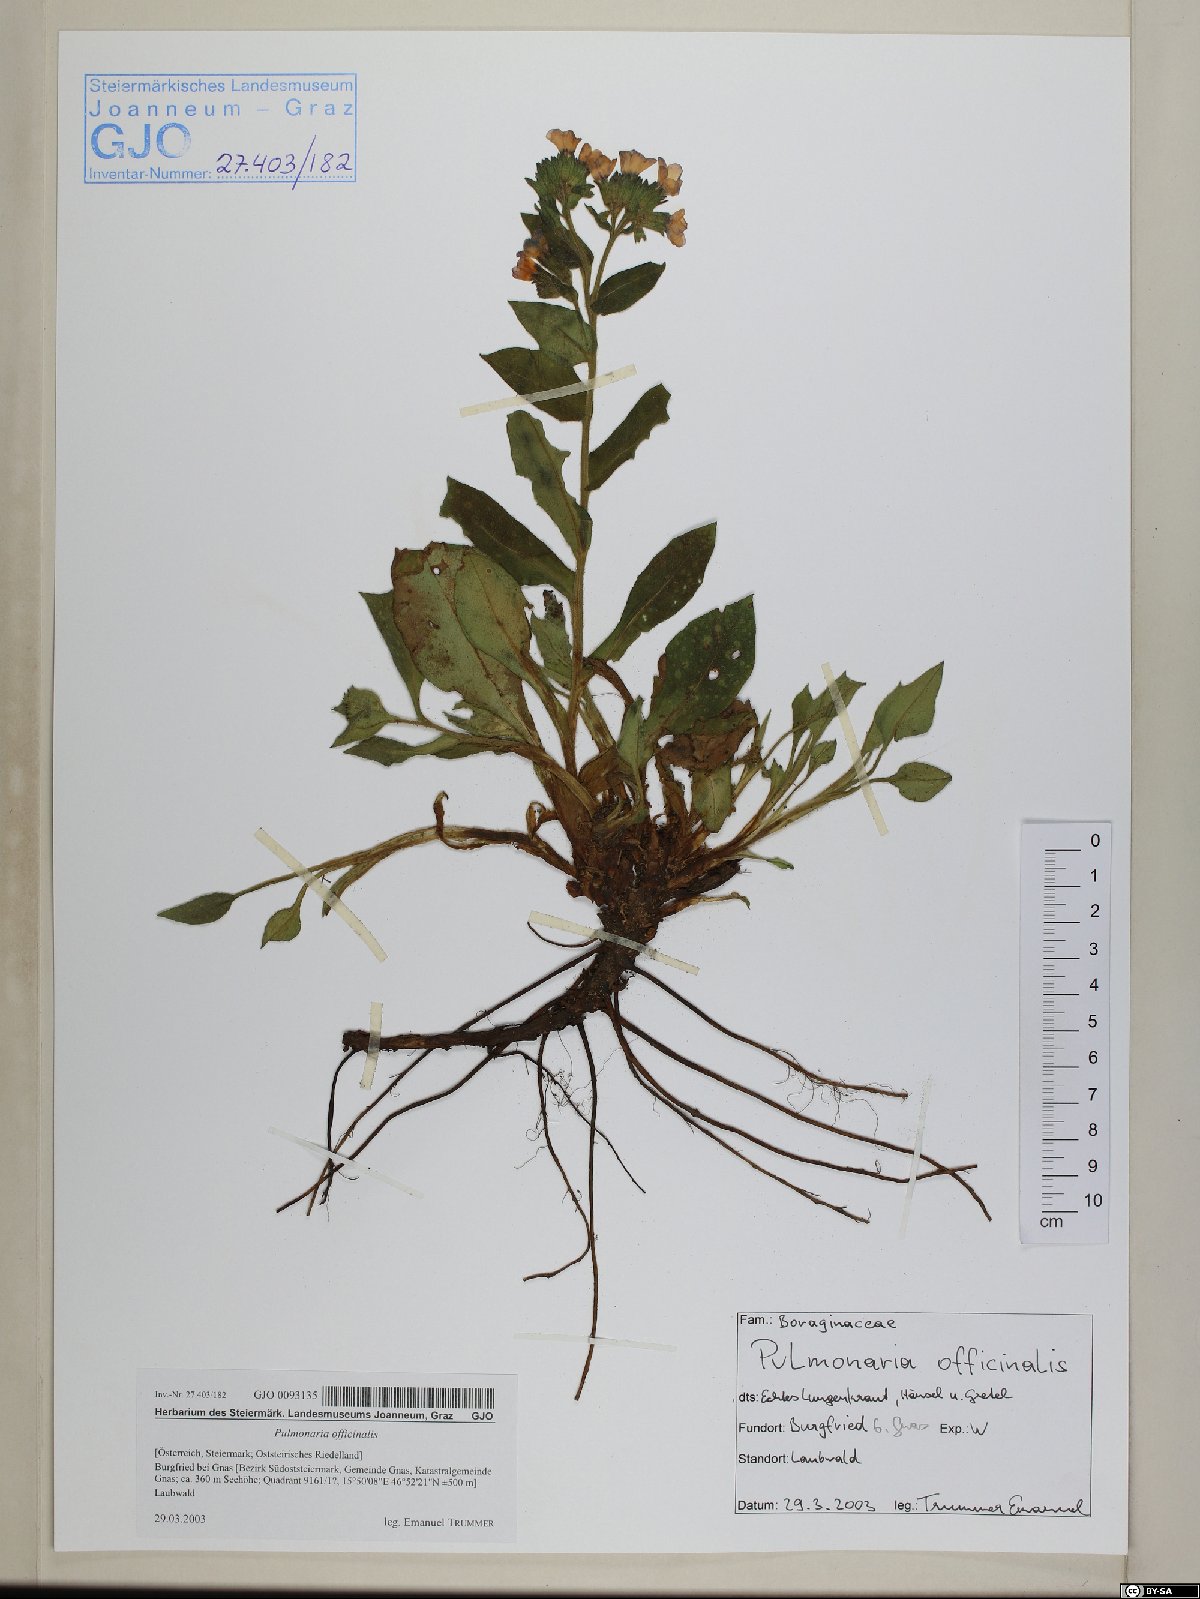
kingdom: Plantae
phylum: Tracheophyta
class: Magnoliopsida
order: Boraginales
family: Boraginaceae
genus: Pulmonaria
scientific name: Pulmonaria officinalis
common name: Lungwort
